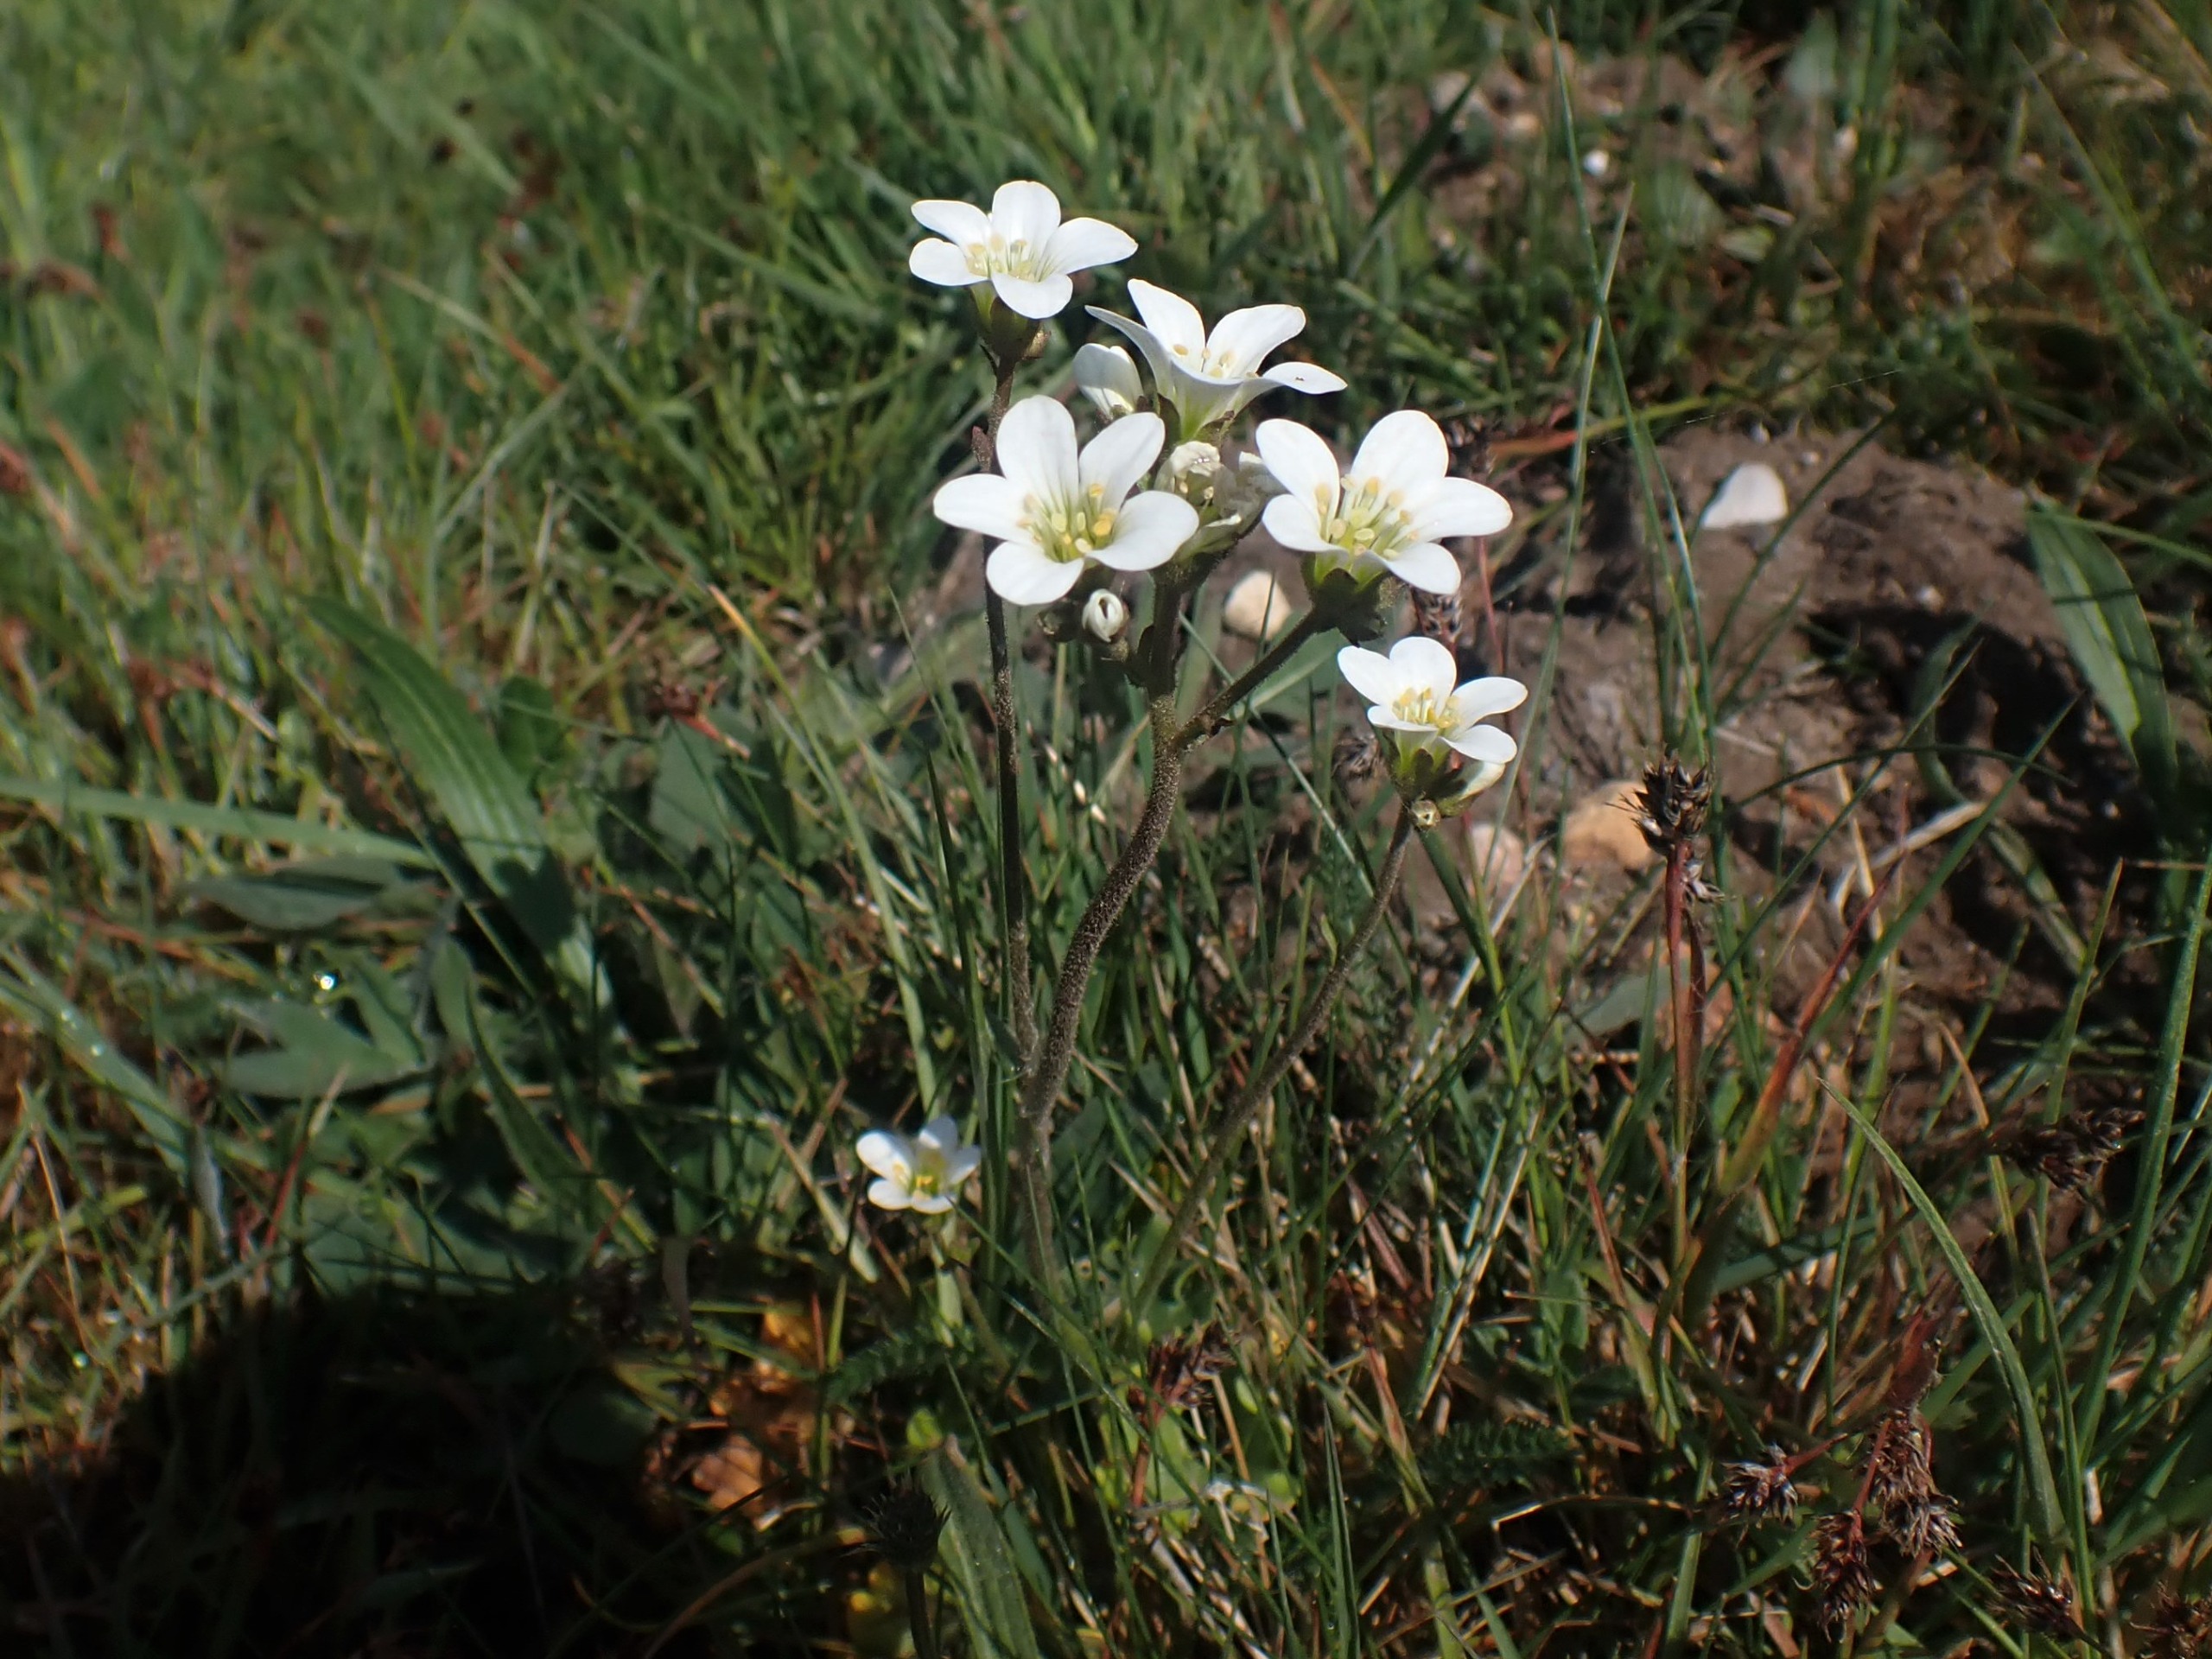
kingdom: Plantae
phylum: Tracheophyta
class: Magnoliopsida
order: Saxifragales
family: Saxifragaceae
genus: Saxifraga
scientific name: Saxifraga granulata
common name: Kornet stenbræk
